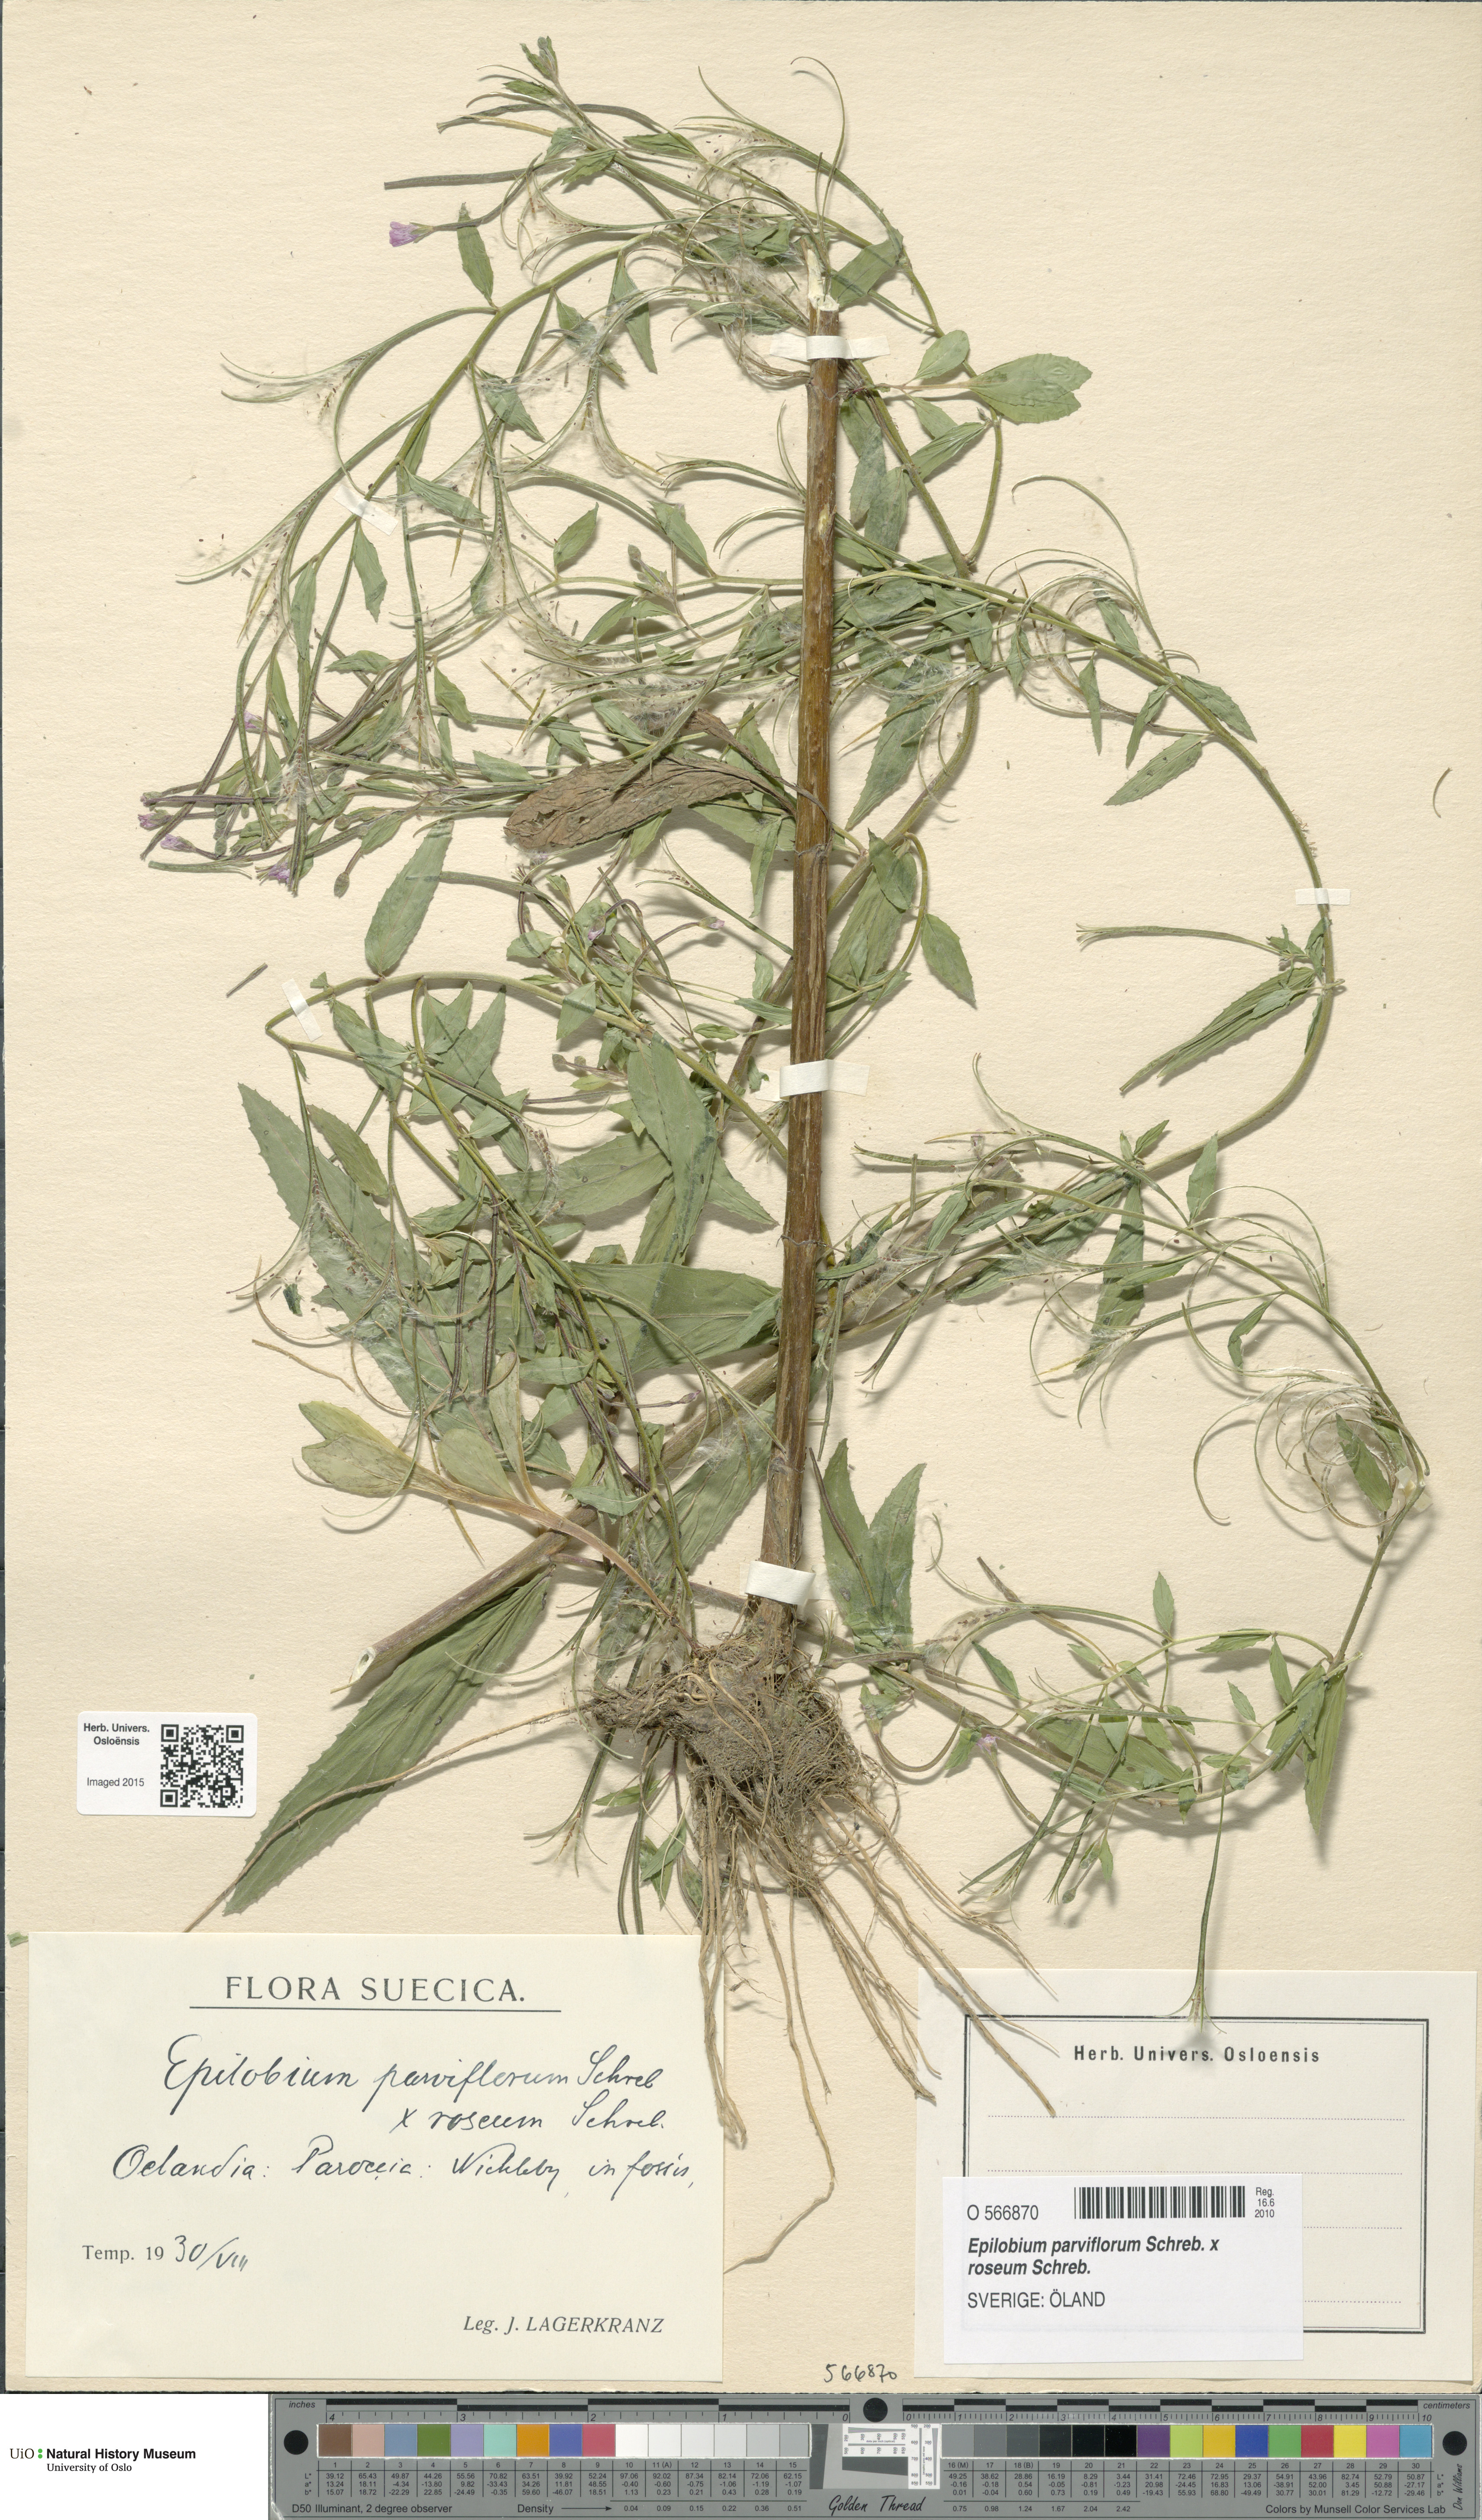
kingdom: Plantae
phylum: Tracheophyta
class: Magnoliopsida
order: Myrtales
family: Onagraceae
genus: Epilobium
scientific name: Epilobium
